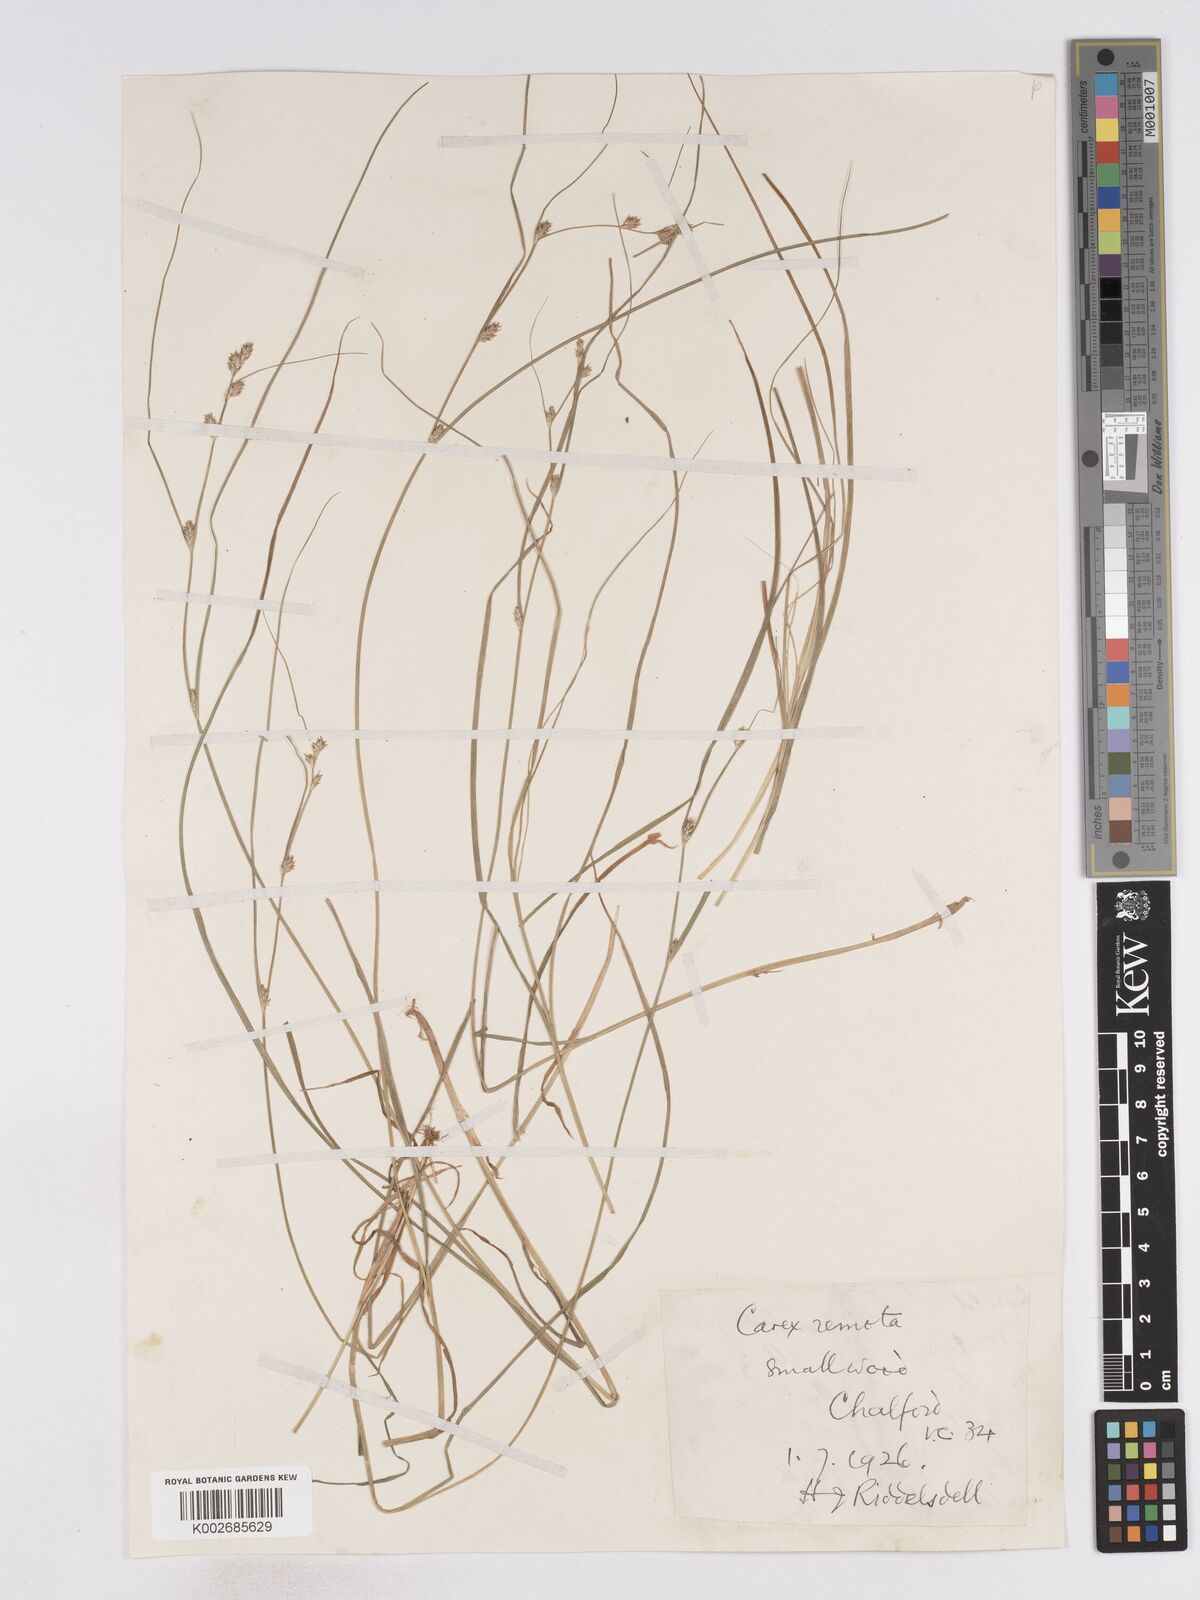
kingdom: Plantae
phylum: Tracheophyta
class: Liliopsida
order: Poales
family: Cyperaceae
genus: Carex
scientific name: Carex remota
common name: Remote sedge
